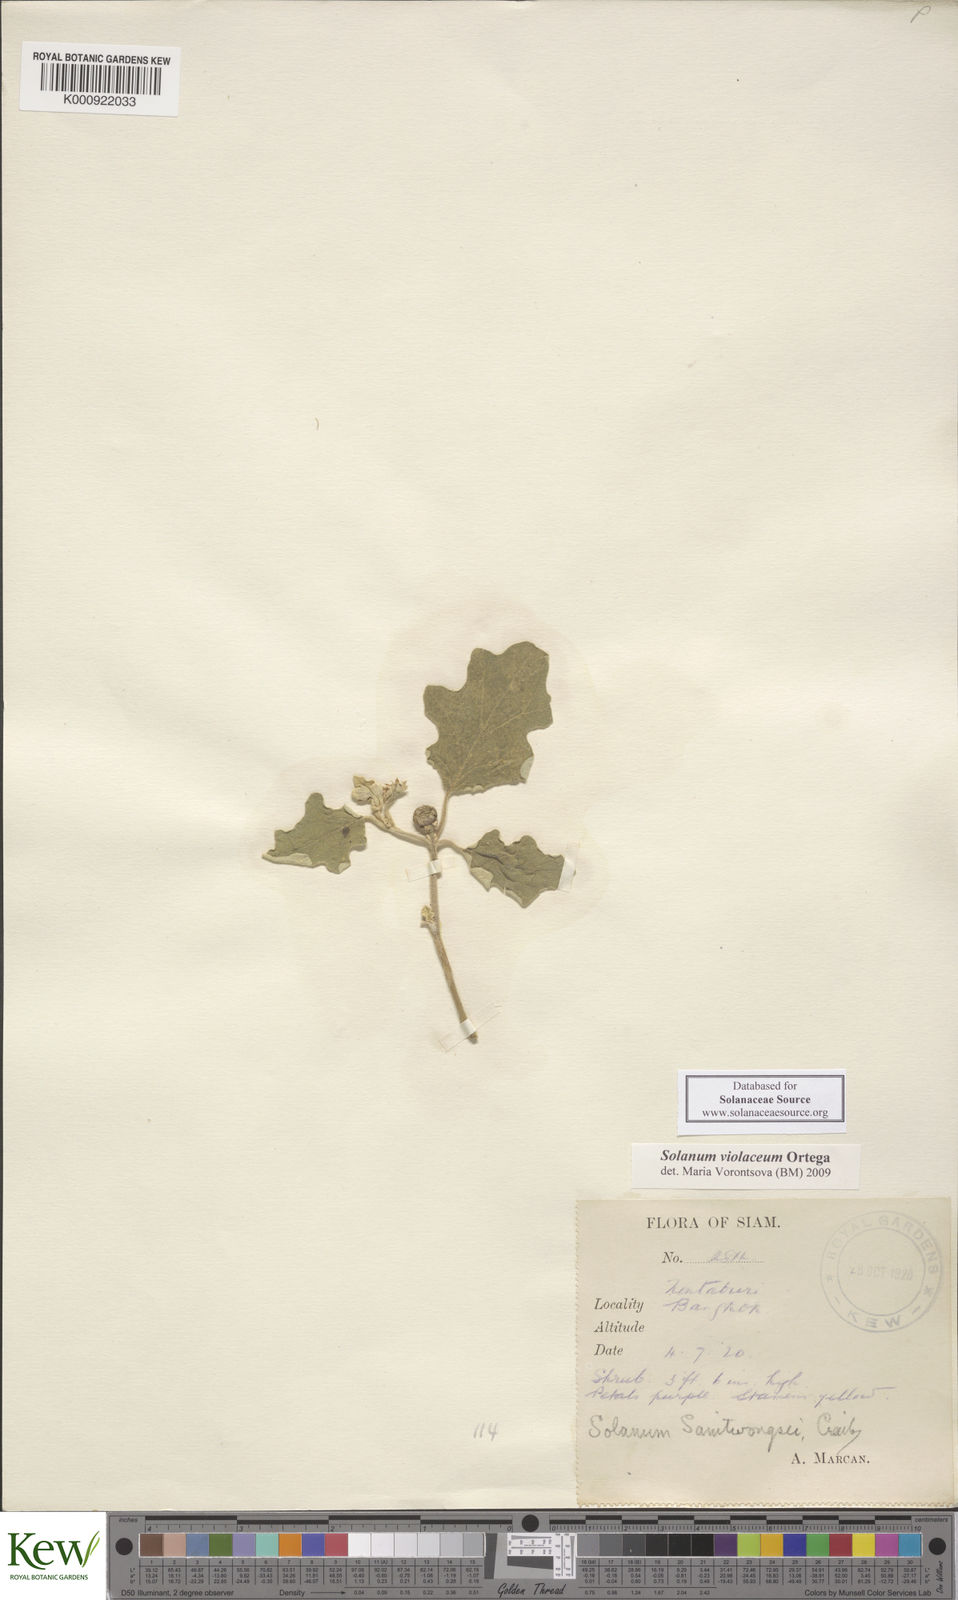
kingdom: Plantae
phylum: Tracheophyta
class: Magnoliopsida
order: Solanales
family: Solanaceae
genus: Solanum
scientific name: Solanum violaceum
